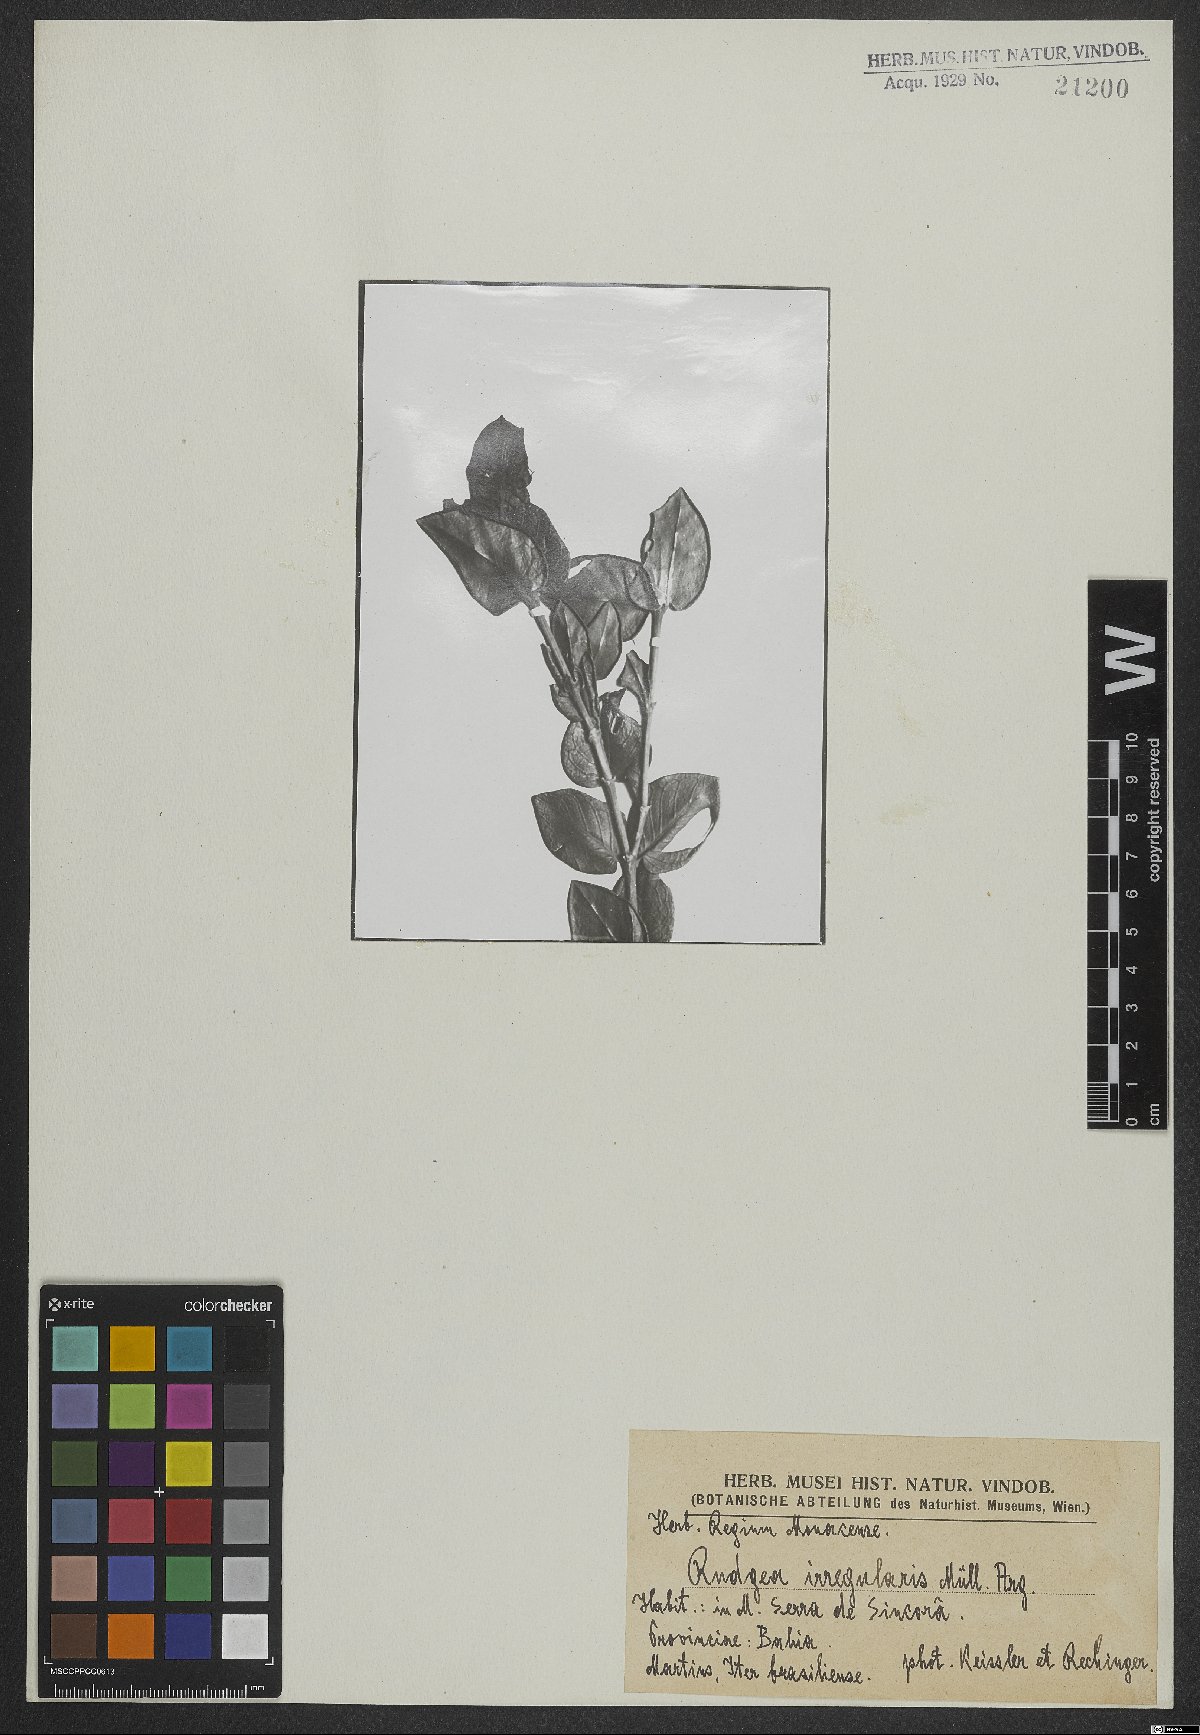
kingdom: Plantae
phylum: Tracheophyta
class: Magnoliopsida
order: Gentianales
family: Rubiaceae
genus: Rudgea
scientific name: Rudgea irregularis
